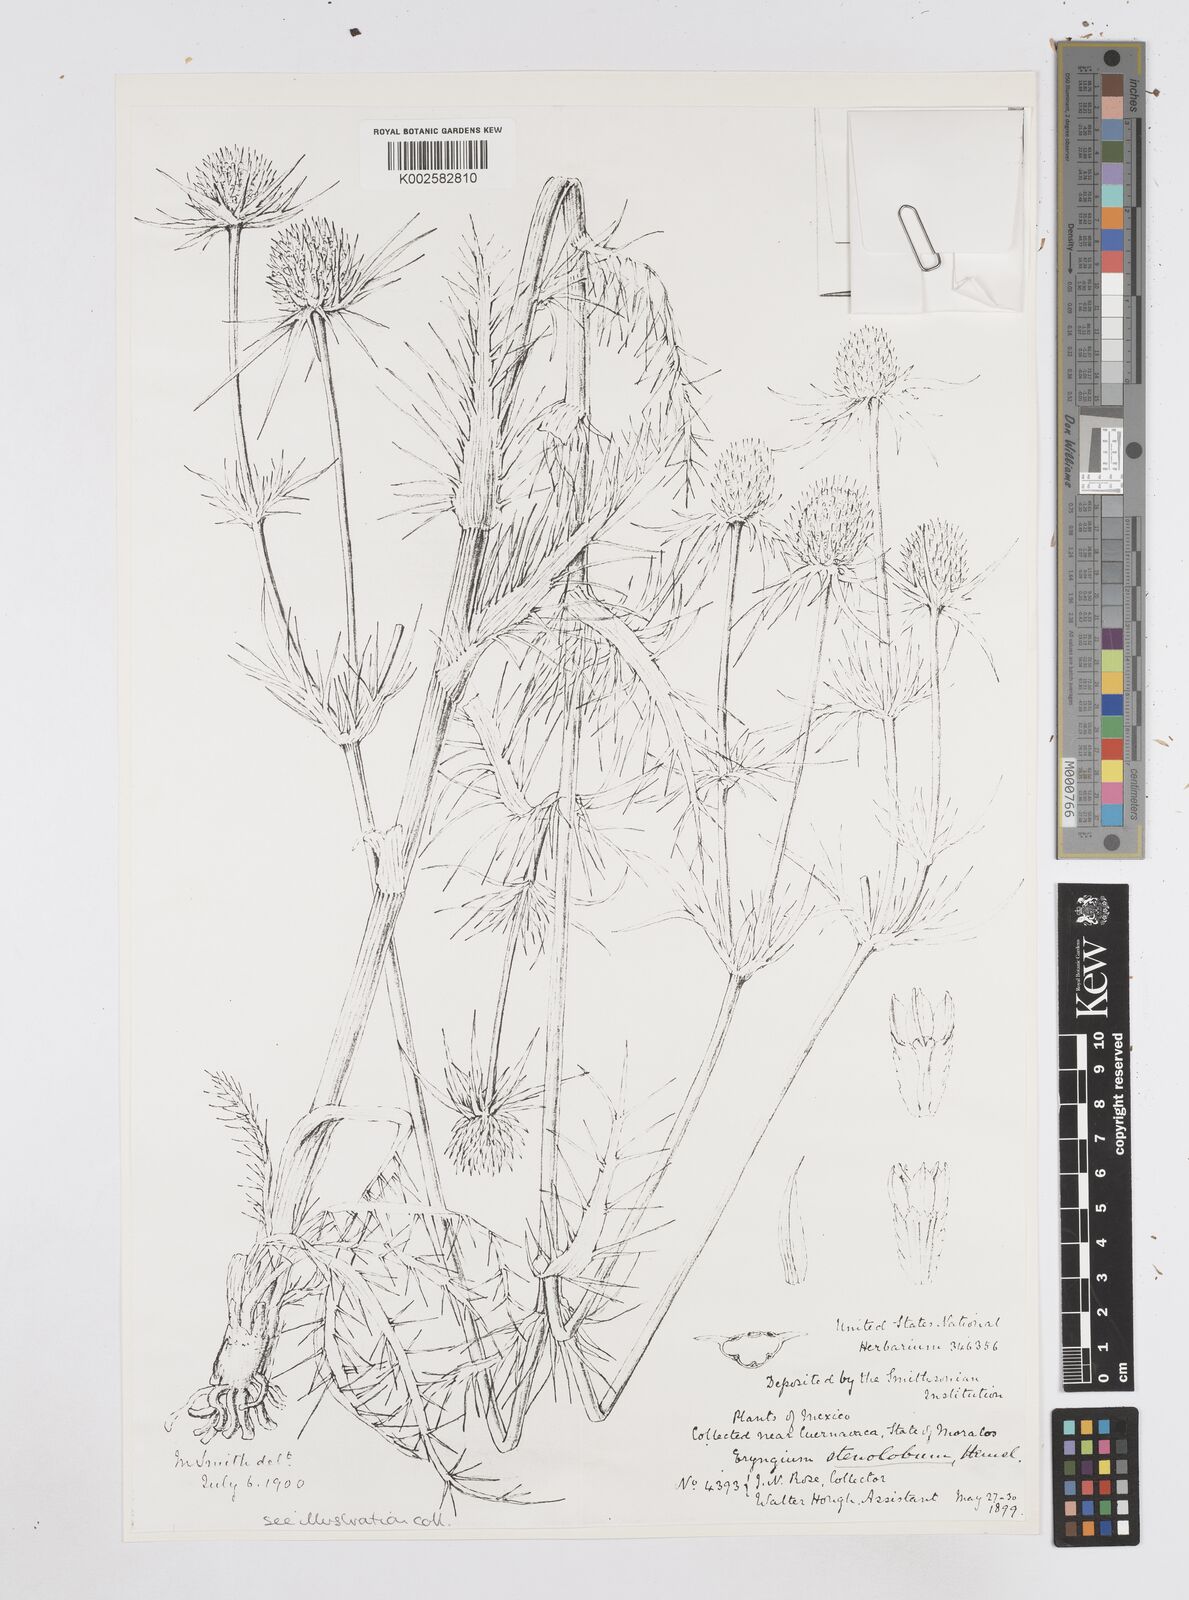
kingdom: Plantae
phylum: Tracheophyta
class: Magnoliopsida
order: Apiales
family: Apiaceae
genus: Eryngium
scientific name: Eryngium pectinatum
